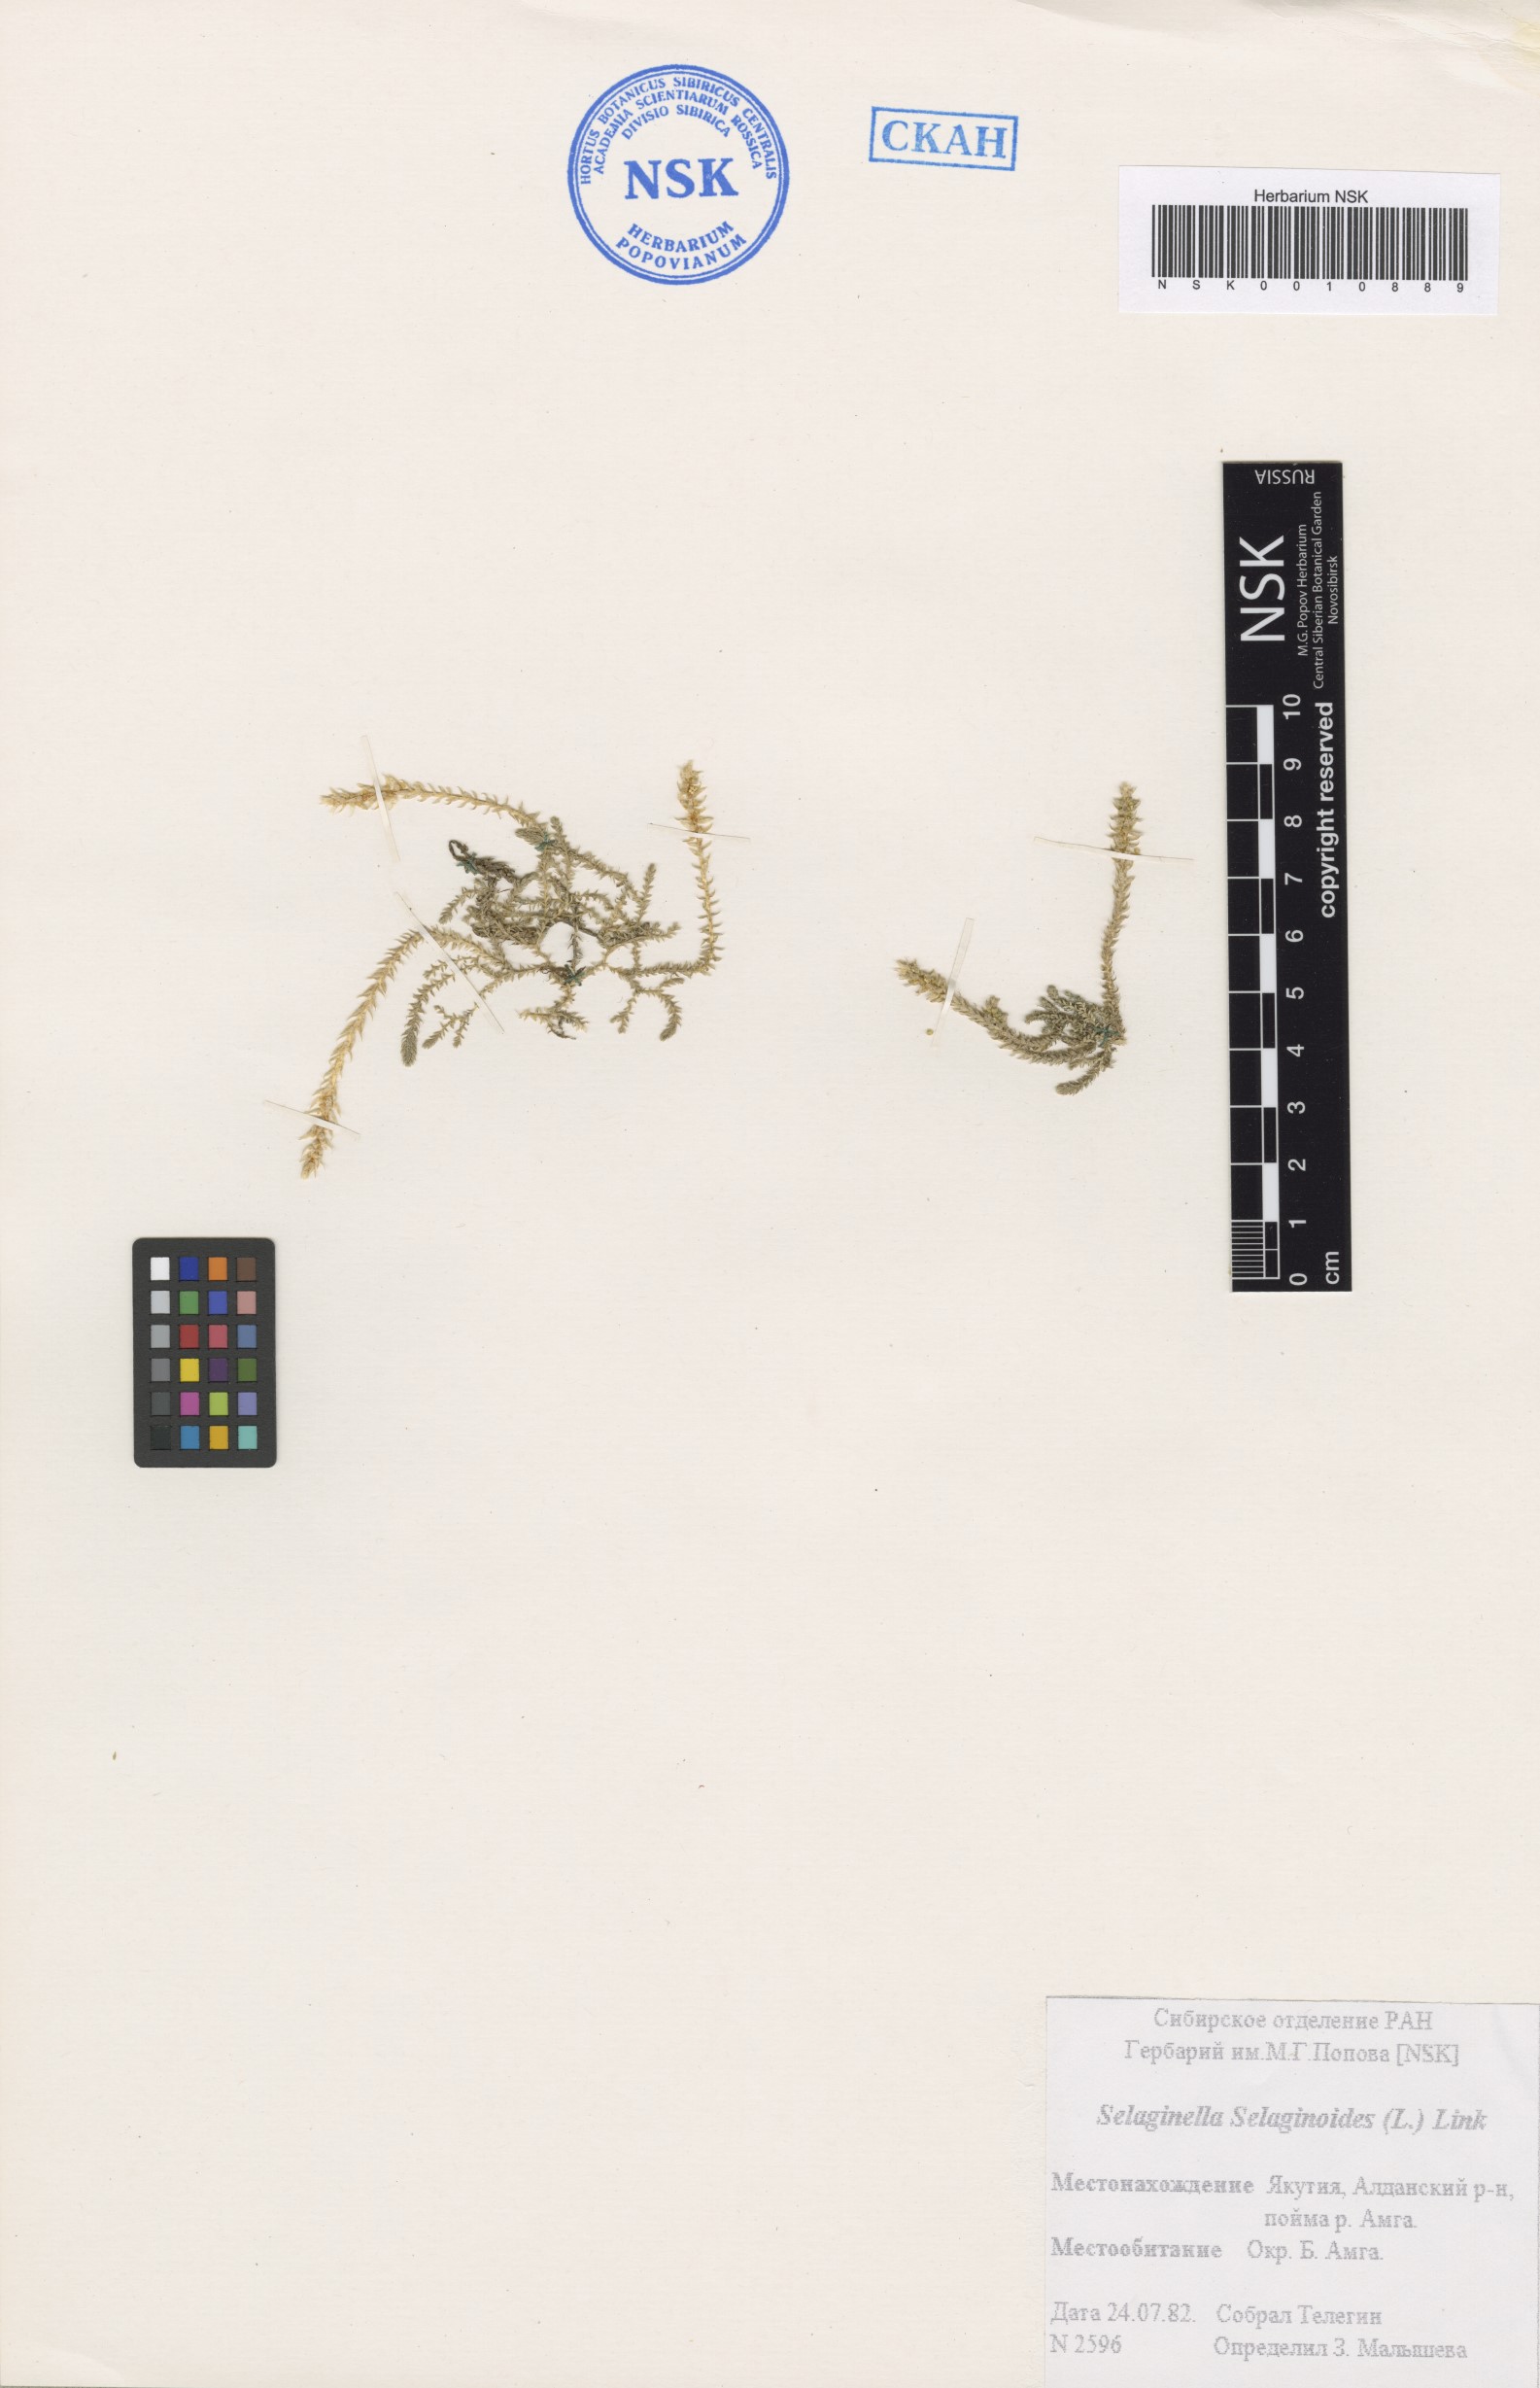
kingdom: Plantae
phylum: Tracheophyta
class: Lycopodiopsida
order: Selaginellales
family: Selaginellaceae
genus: Selaginella
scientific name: Selaginella selaginoides
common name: Prickly mountain-moss
